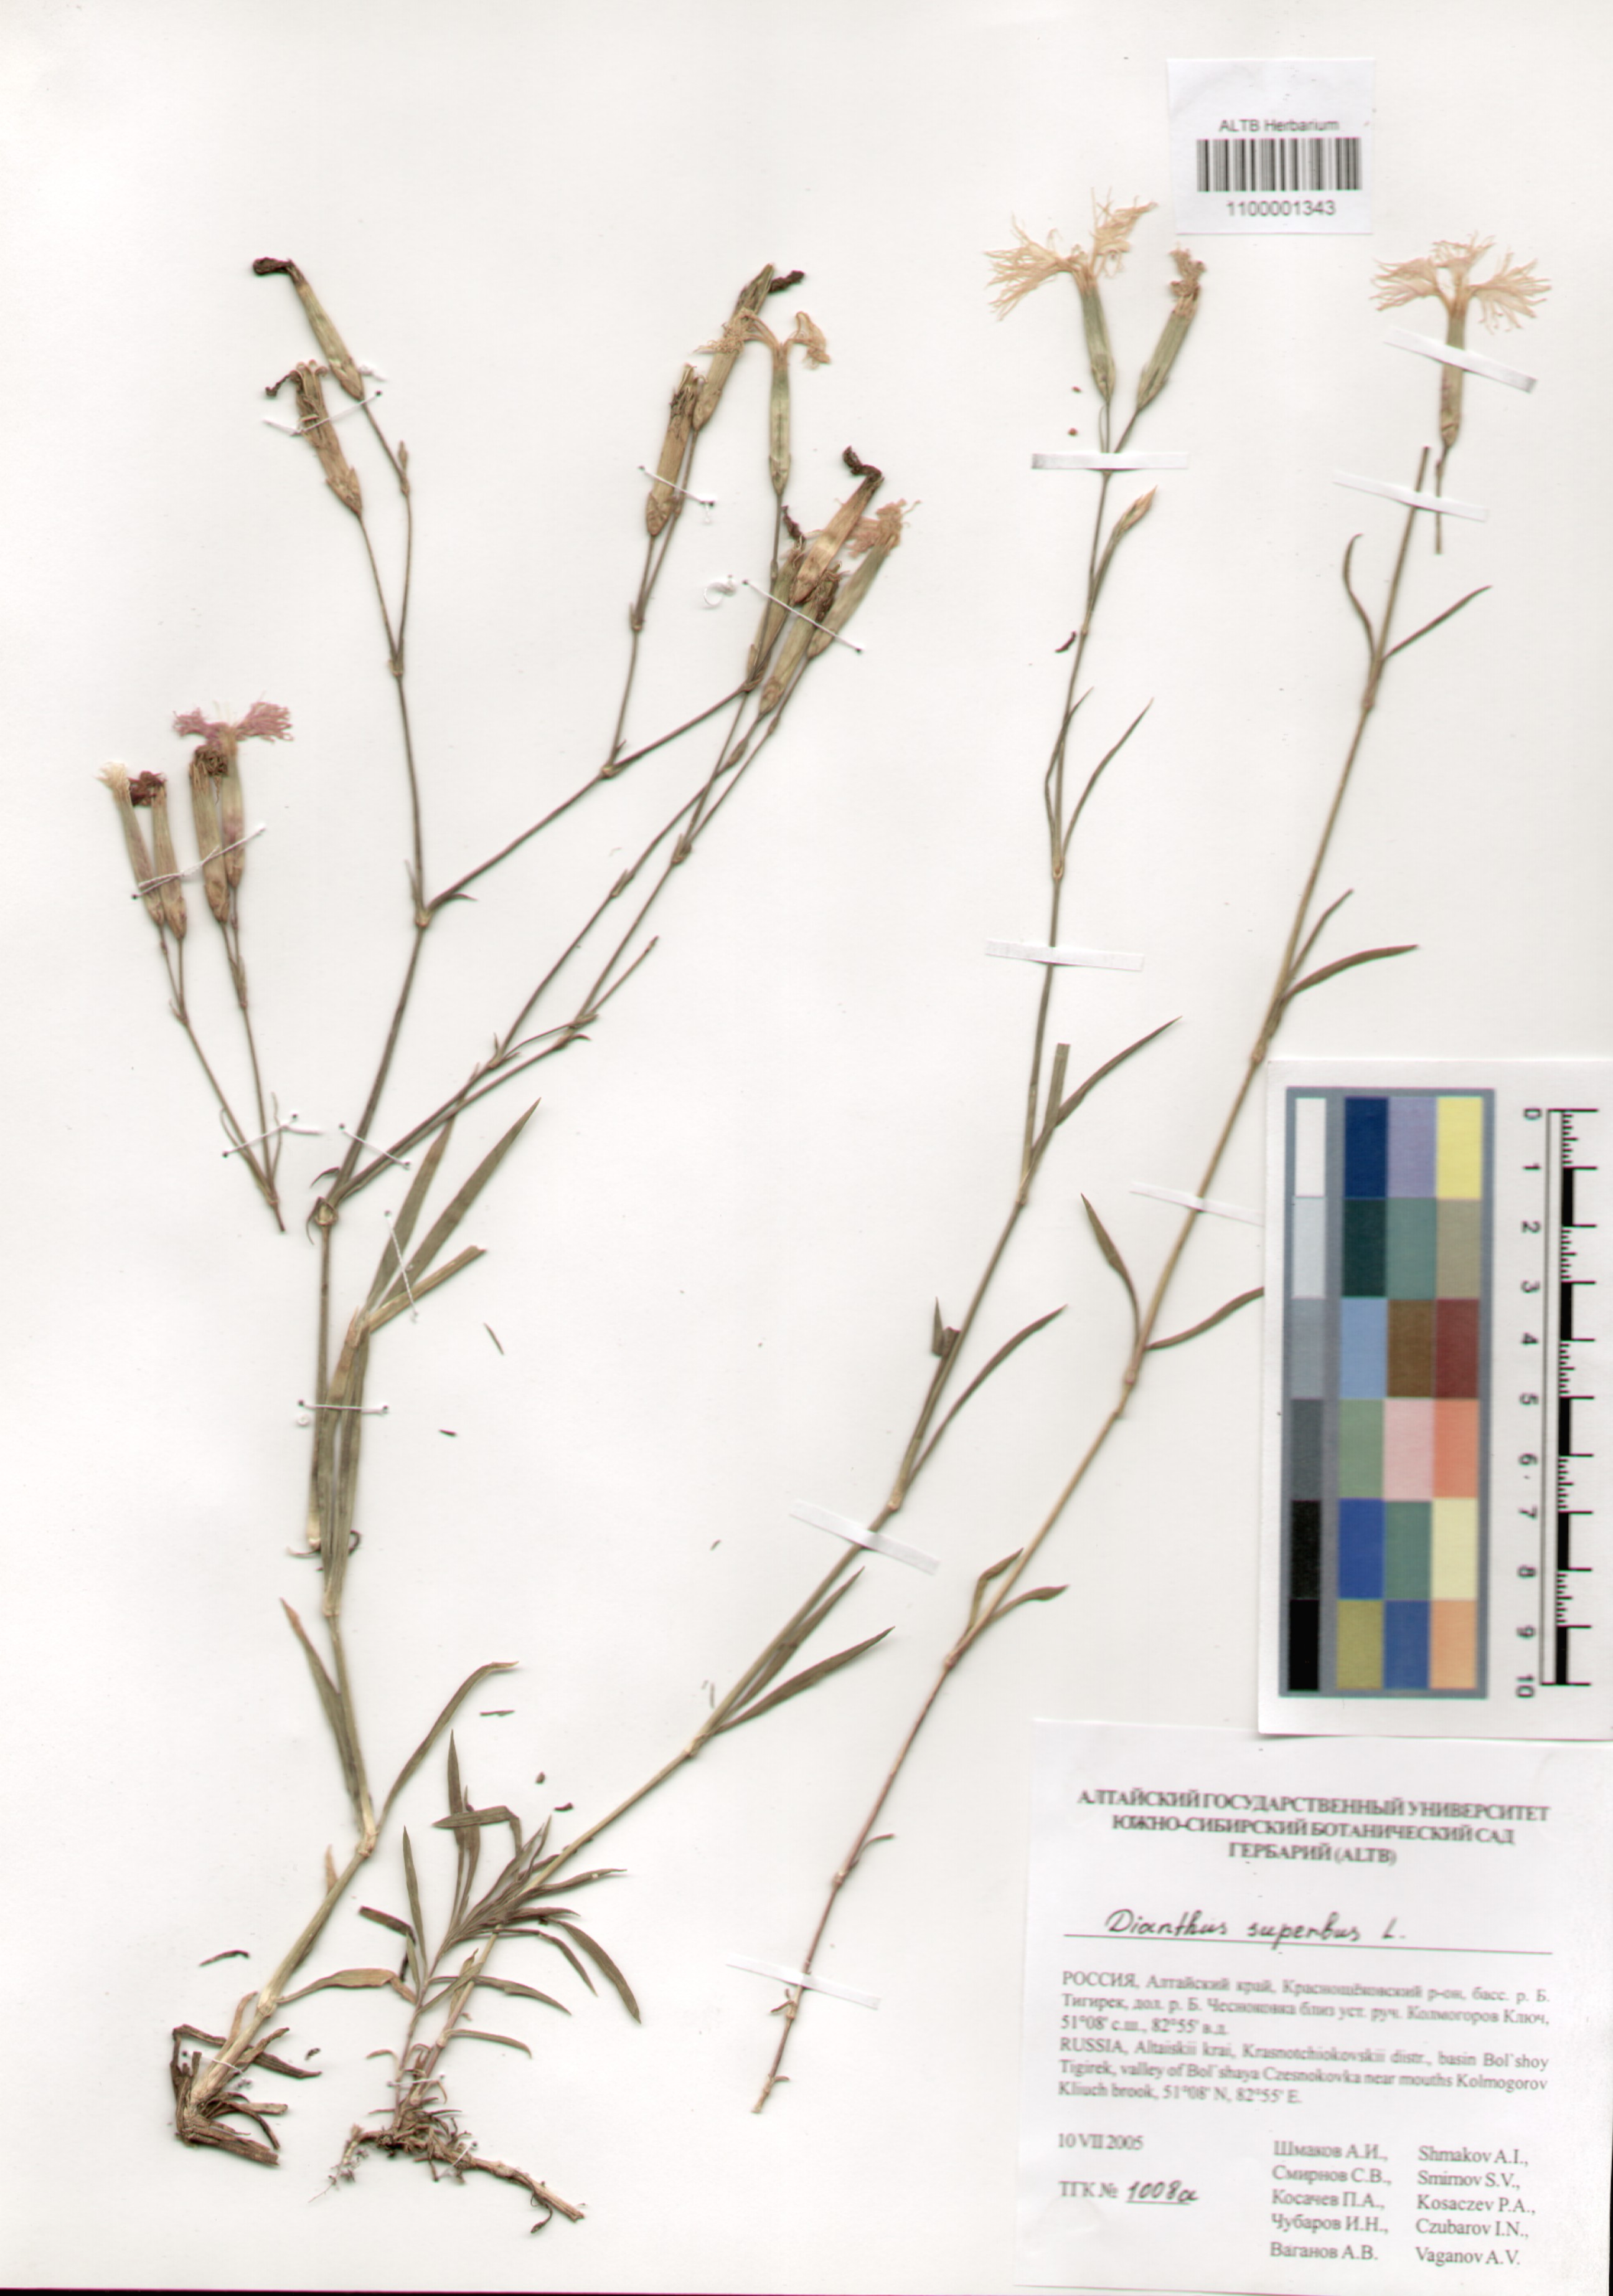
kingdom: Plantae
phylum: Tracheophyta
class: Magnoliopsida
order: Caryophyllales
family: Caryophyllaceae
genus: Dianthus
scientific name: Dianthus superbus
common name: Fringed pink
